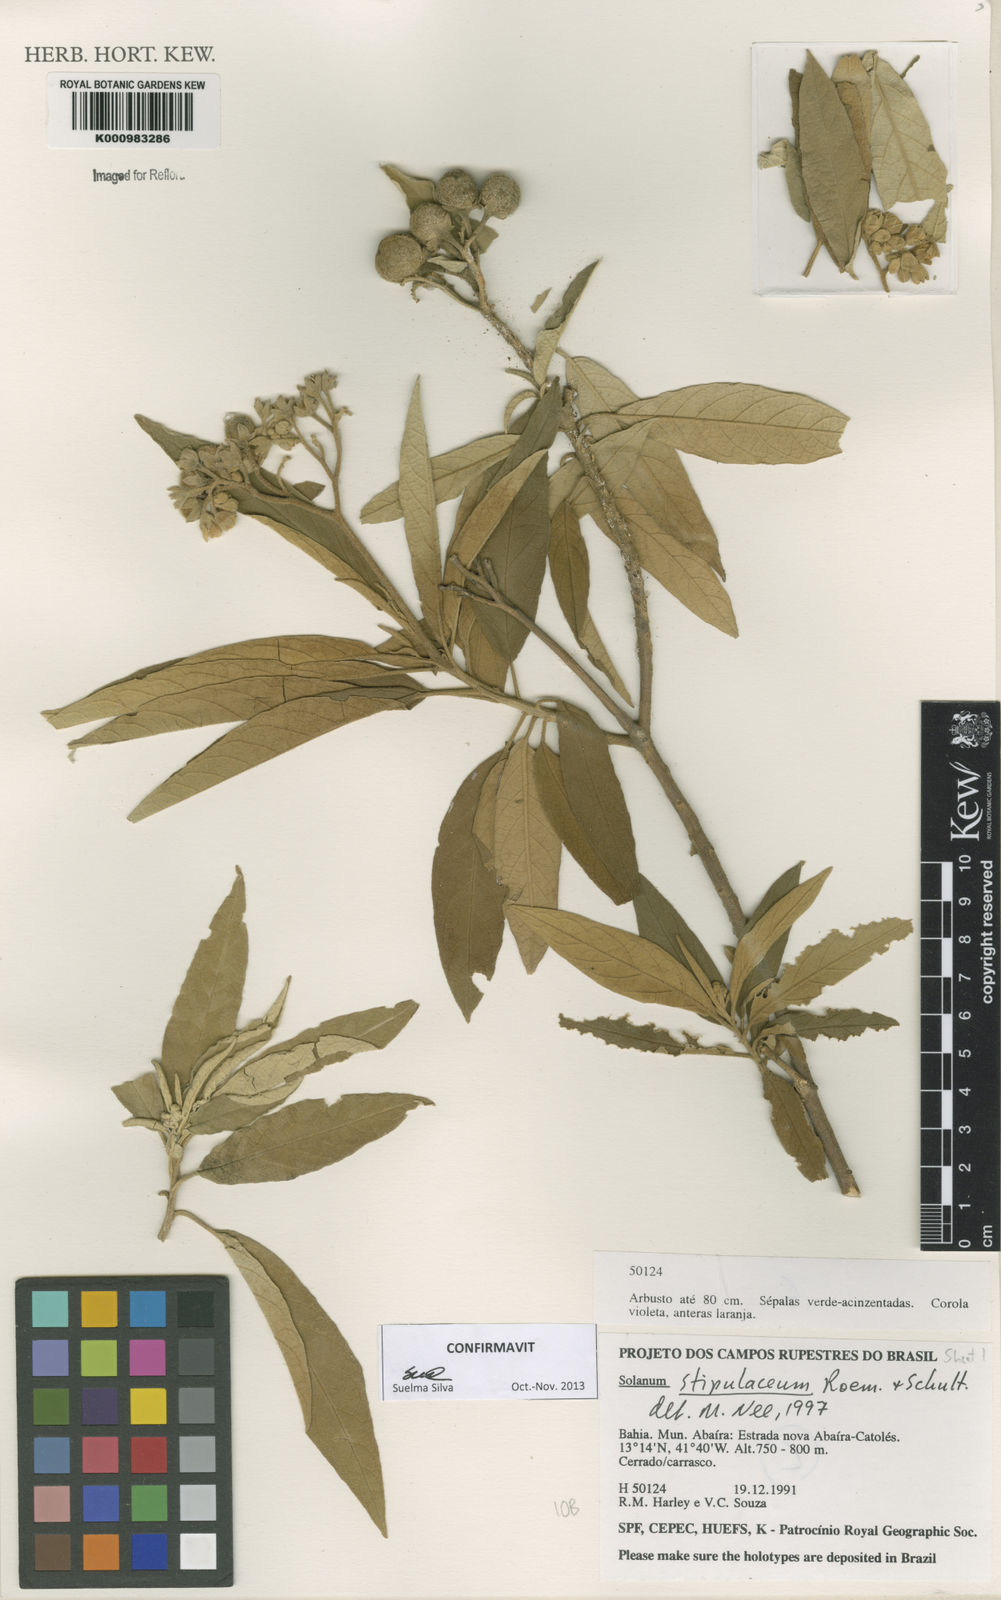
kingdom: Plantae
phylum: Tracheophyta
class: Magnoliopsida
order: Solanales
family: Solanaceae
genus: Solanum
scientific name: Solanum stipulaceum
